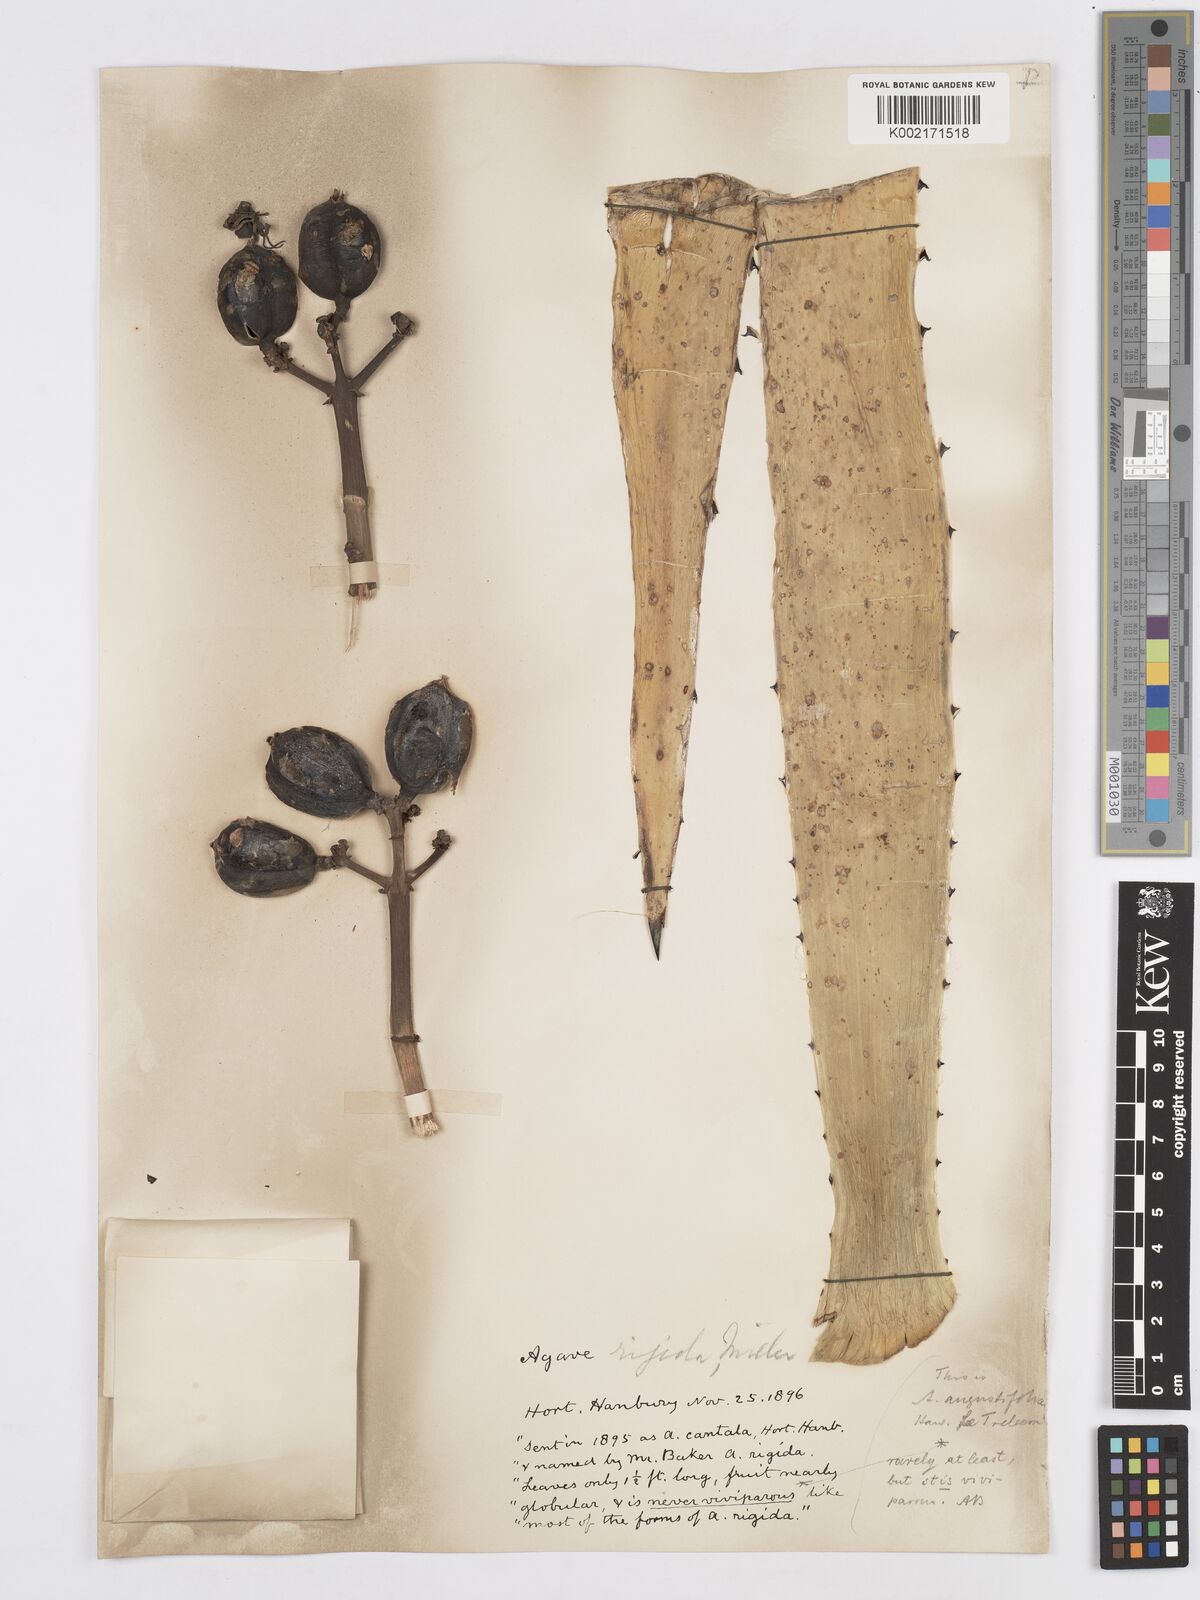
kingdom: Plantae
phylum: Tracheophyta
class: Liliopsida
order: Asparagales
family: Asparagaceae
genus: Agave
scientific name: Agave angustifolia
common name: Mescal agave
